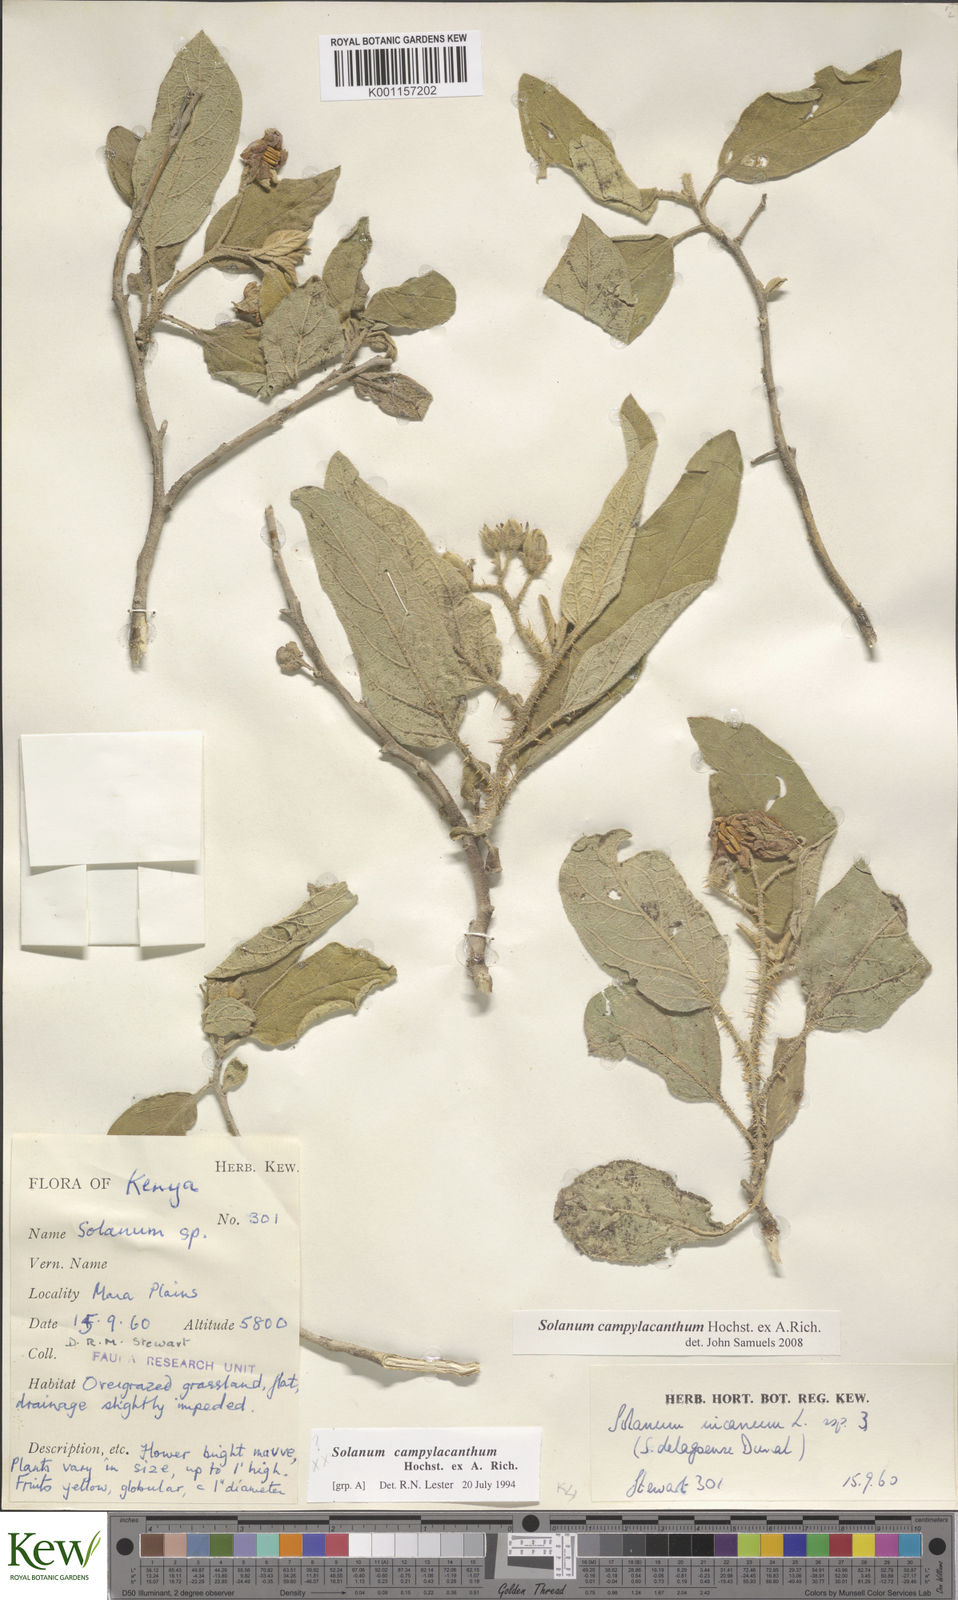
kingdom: Plantae
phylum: Tracheophyta
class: Magnoliopsida
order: Solanales
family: Solanaceae
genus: Solanum
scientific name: Solanum campylacanthum
